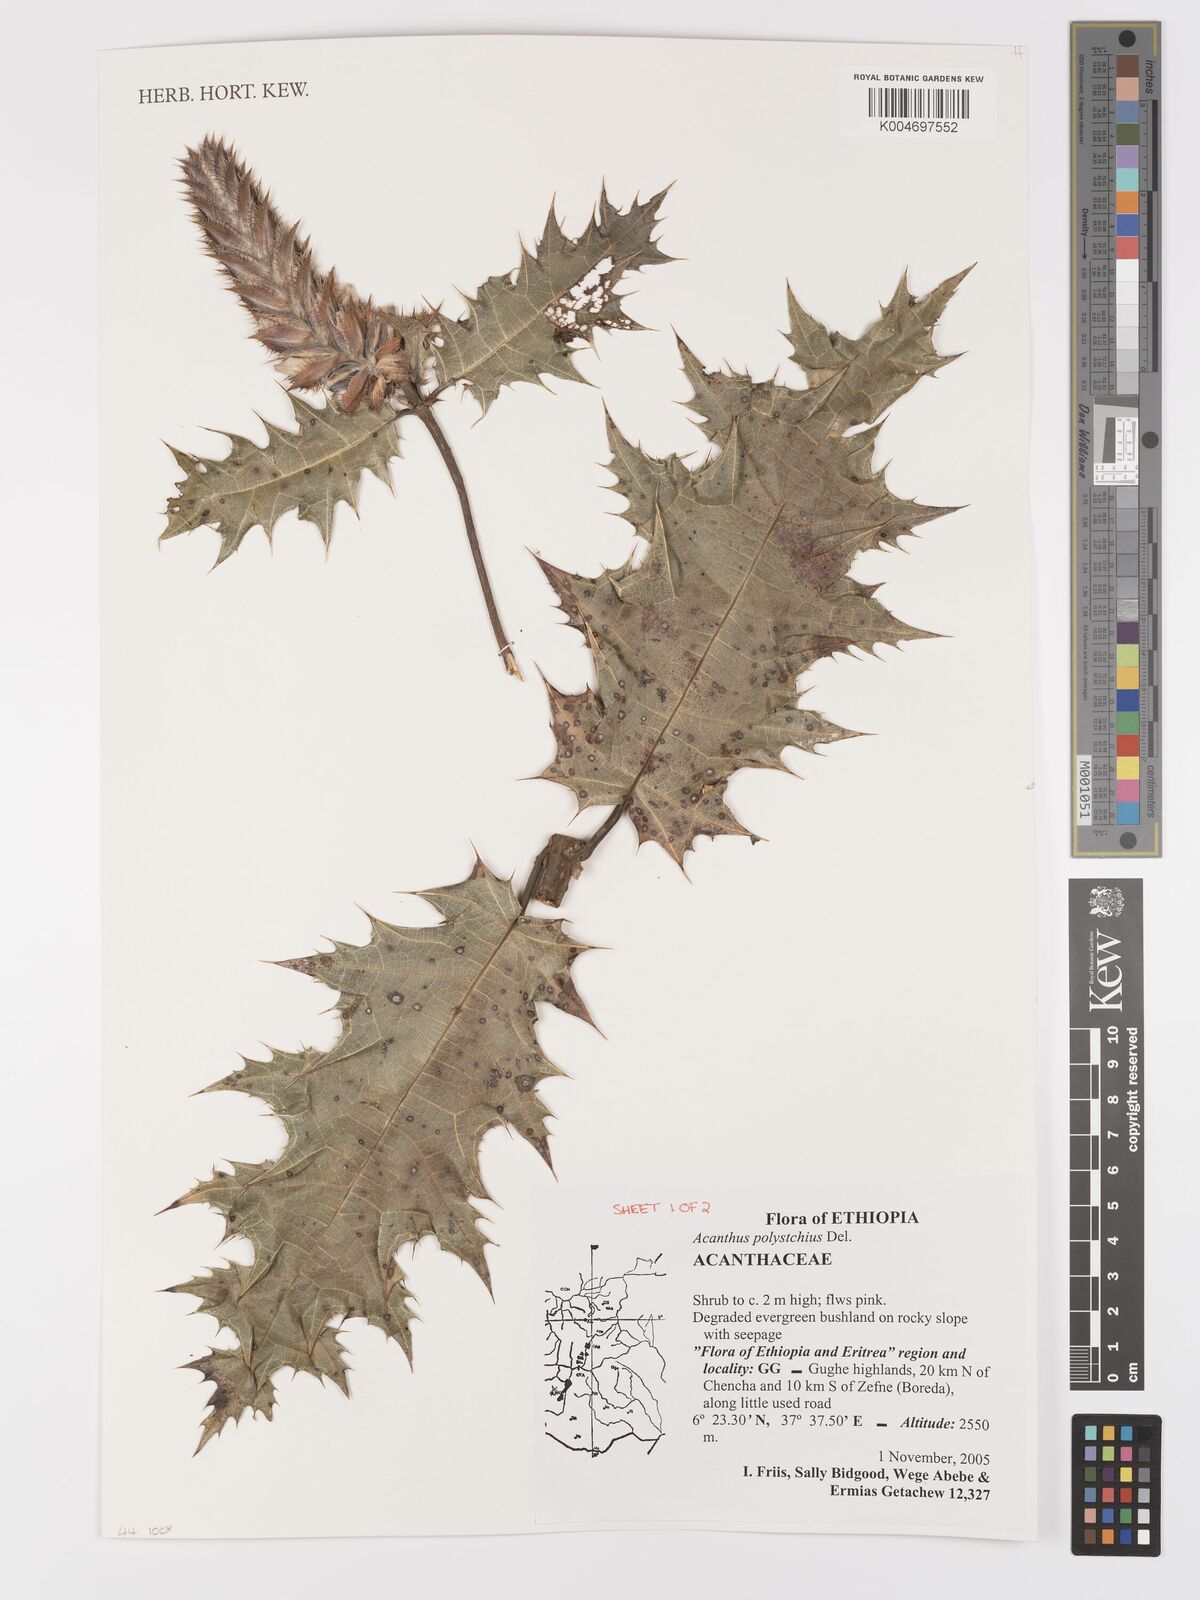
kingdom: Plantae
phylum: Tracheophyta
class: Magnoliopsida
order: Lamiales
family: Acanthaceae
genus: Acanthus
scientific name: Acanthus polystachyus
